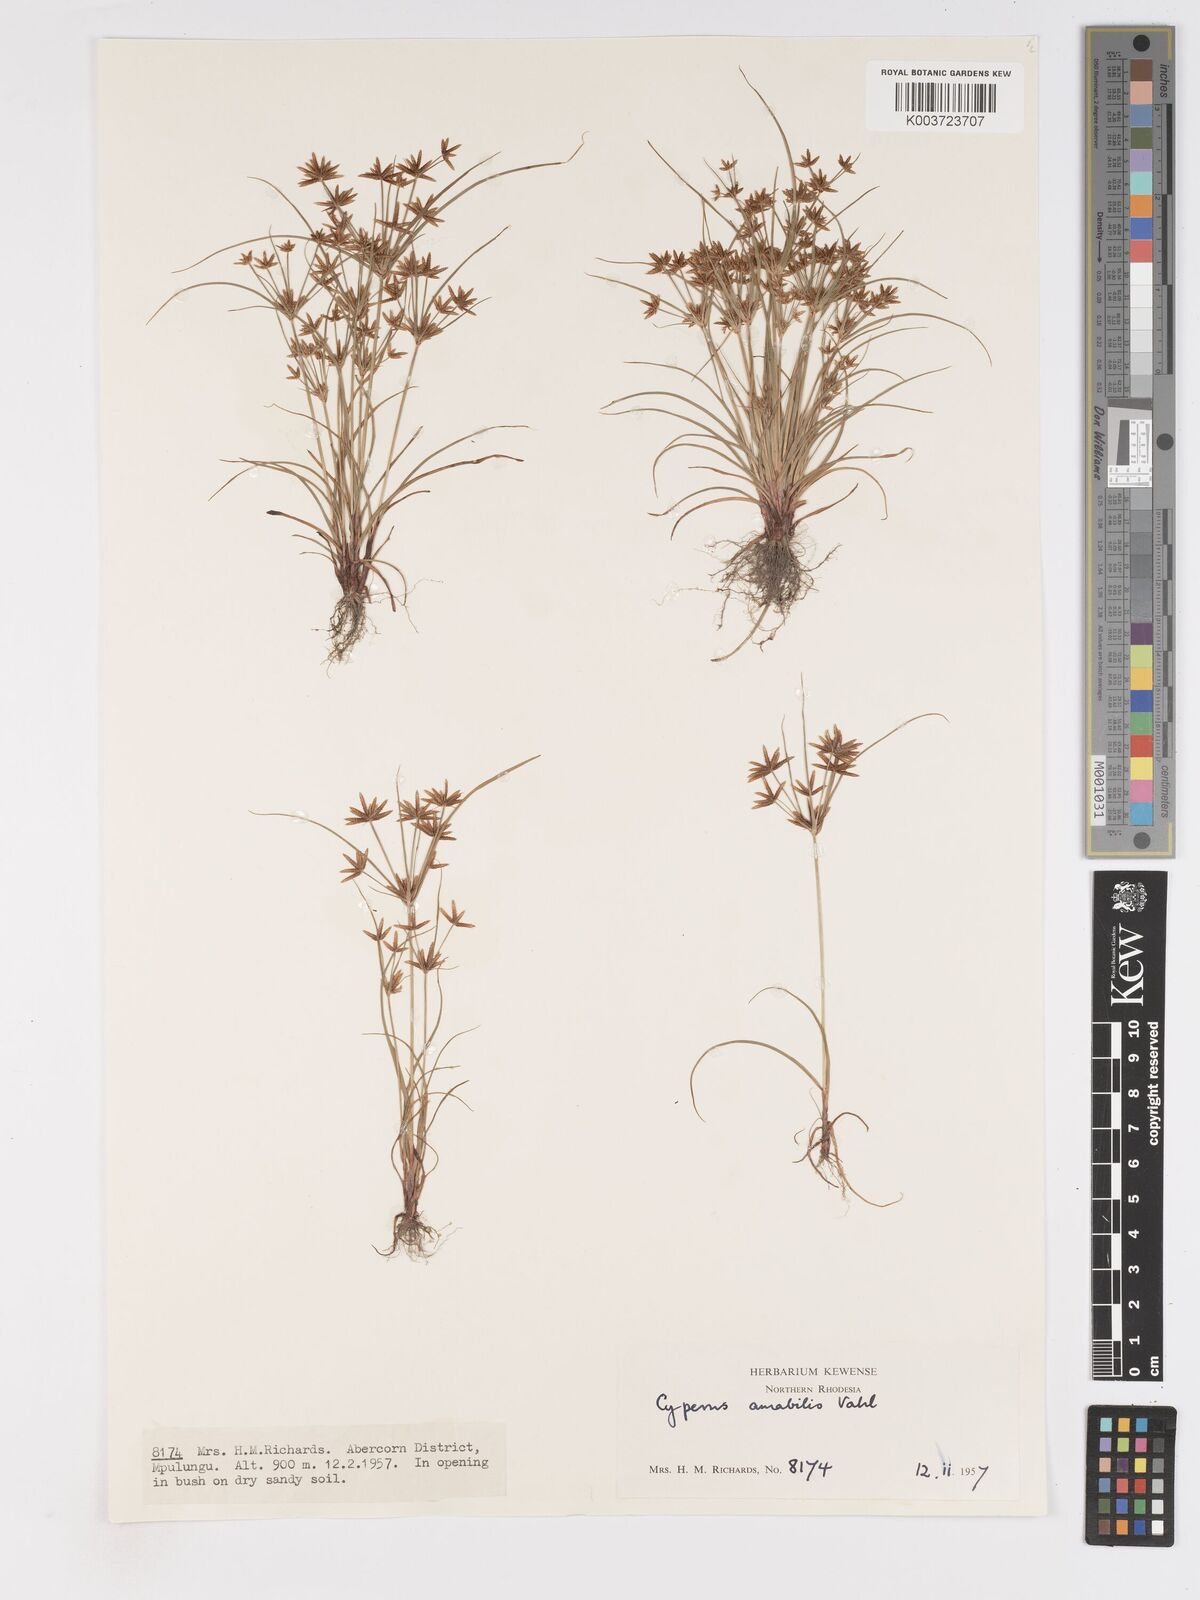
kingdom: Plantae
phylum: Tracheophyta
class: Liliopsida
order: Poales
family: Cyperaceae
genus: Cyperus
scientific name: Cyperus amabilis
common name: Foothill flat sedge
